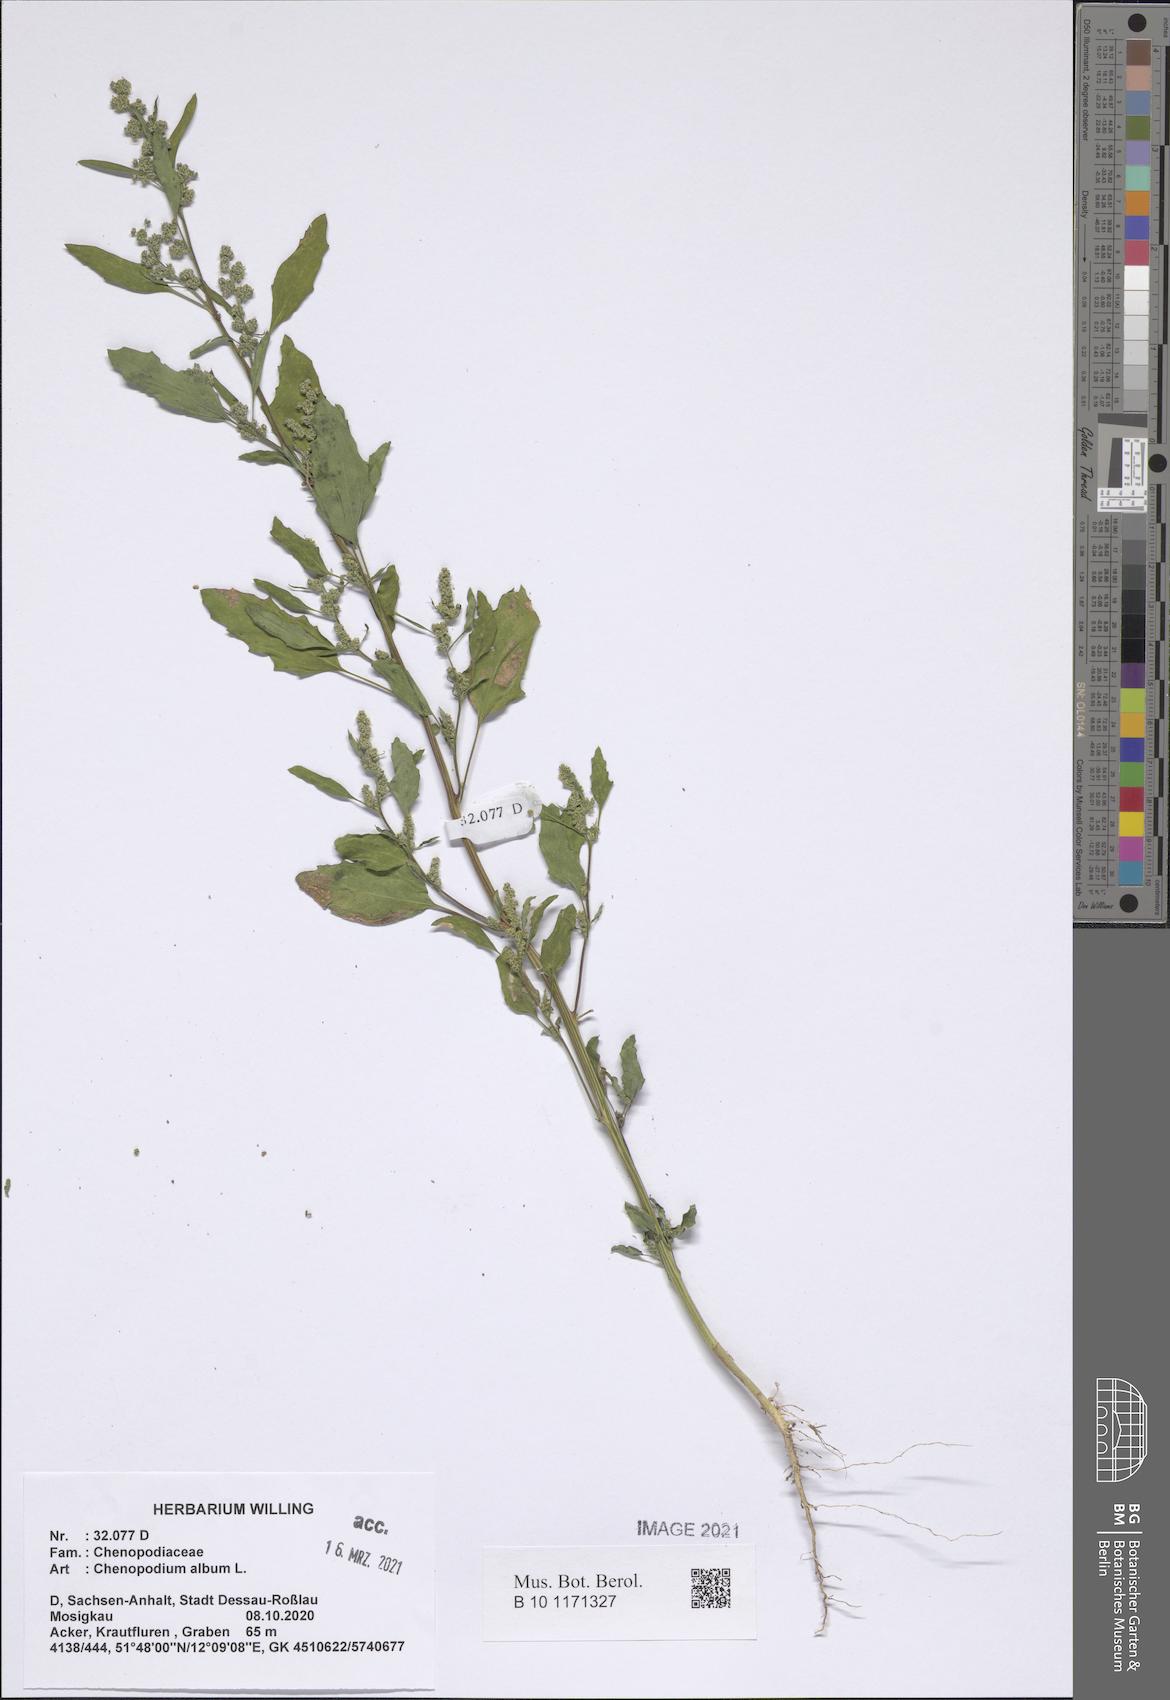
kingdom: Plantae
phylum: Tracheophyta
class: Magnoliopsida
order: Caryophyllales
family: Amaranthaceae
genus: Chenopodium
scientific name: Chenopodium album
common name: Fat-hen
